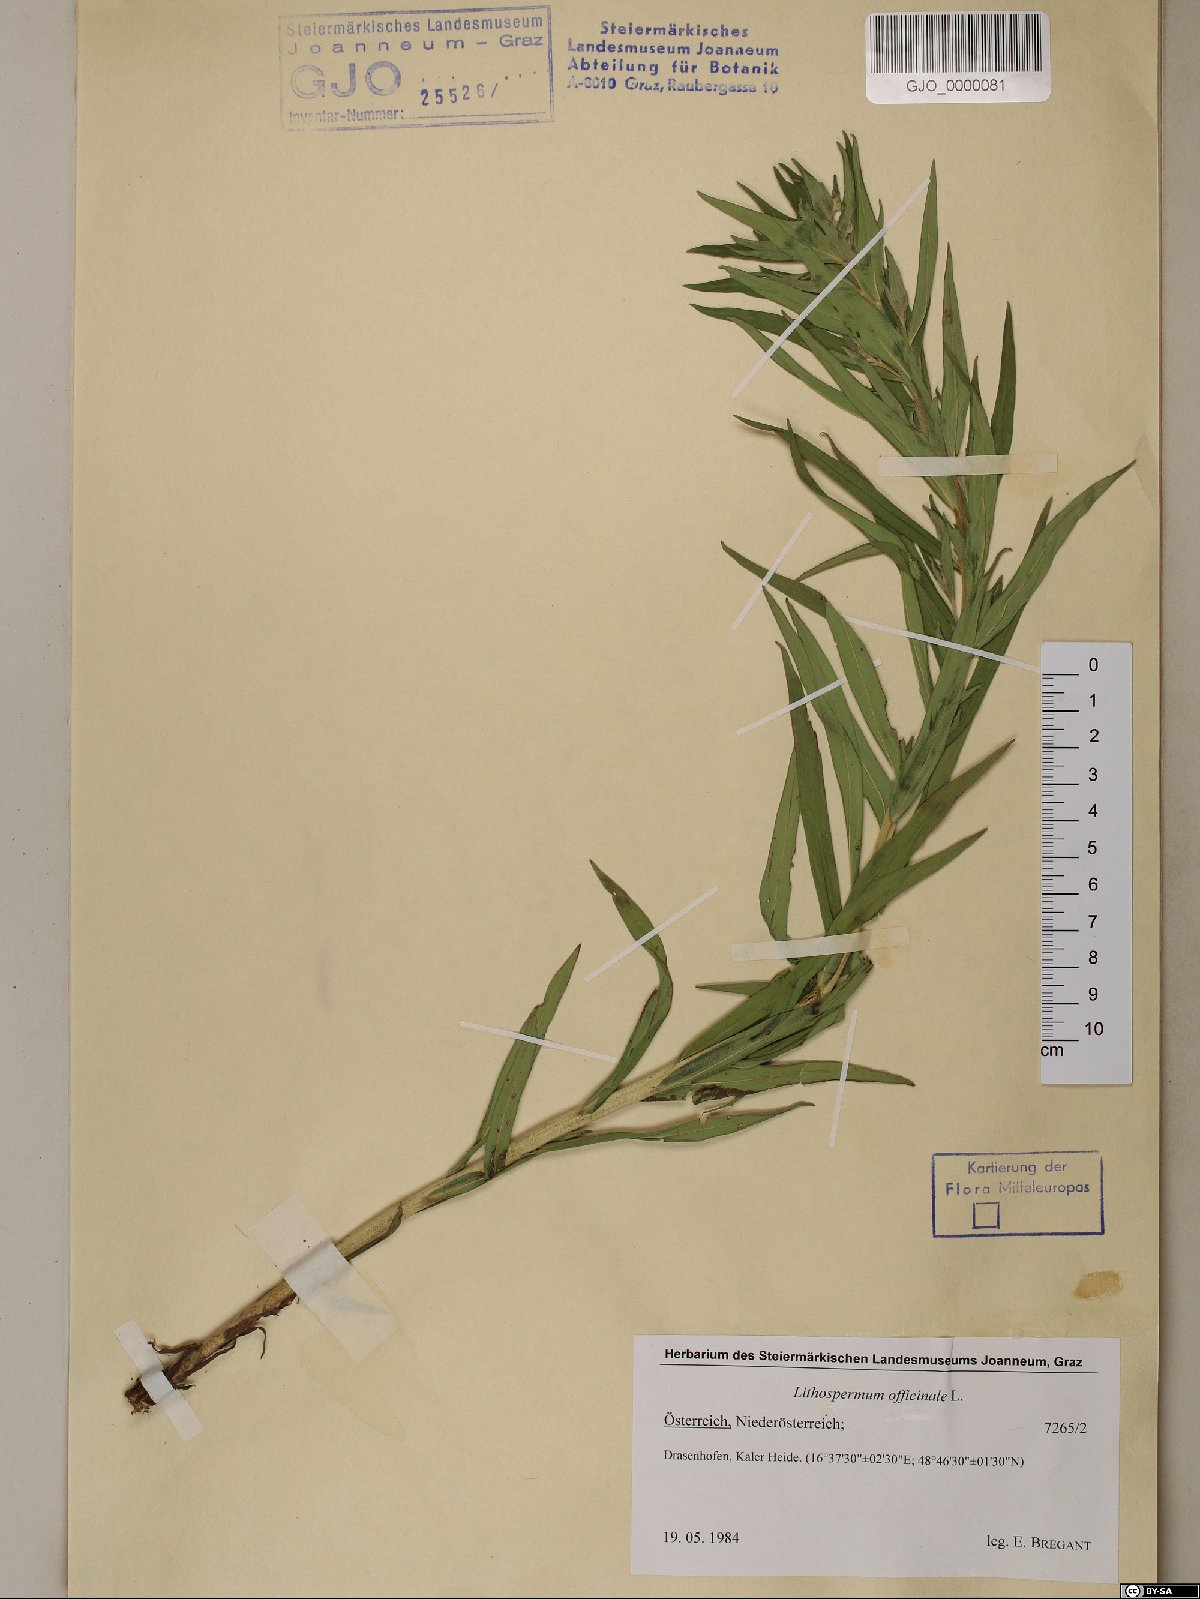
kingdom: Plantae
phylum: Tracheophyta
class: Magnoliopsida
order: Boraginales
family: Boraginaceae
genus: Lithospermum
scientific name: Lithospermum officinale
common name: Common gromwell
